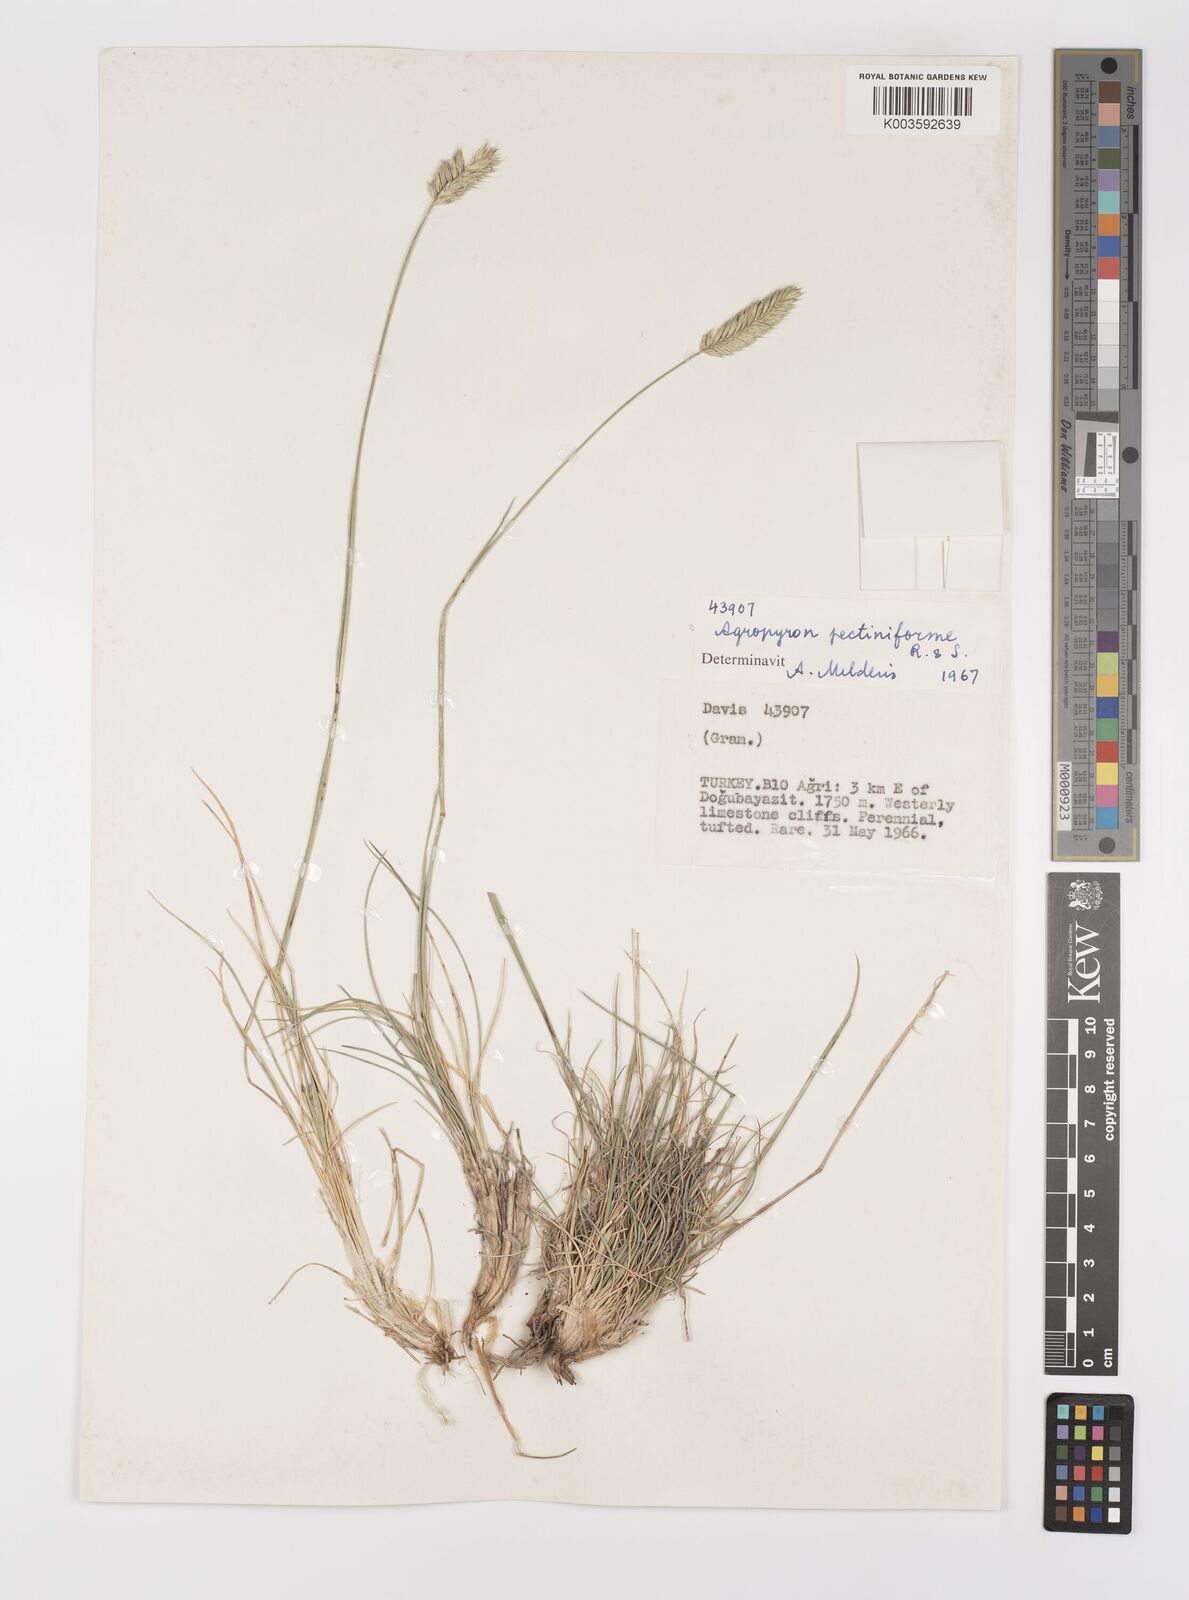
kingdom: Plantae
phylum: Tracheophyta
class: Liliopsida
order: Poales
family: Poaceae
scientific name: Poaceae
